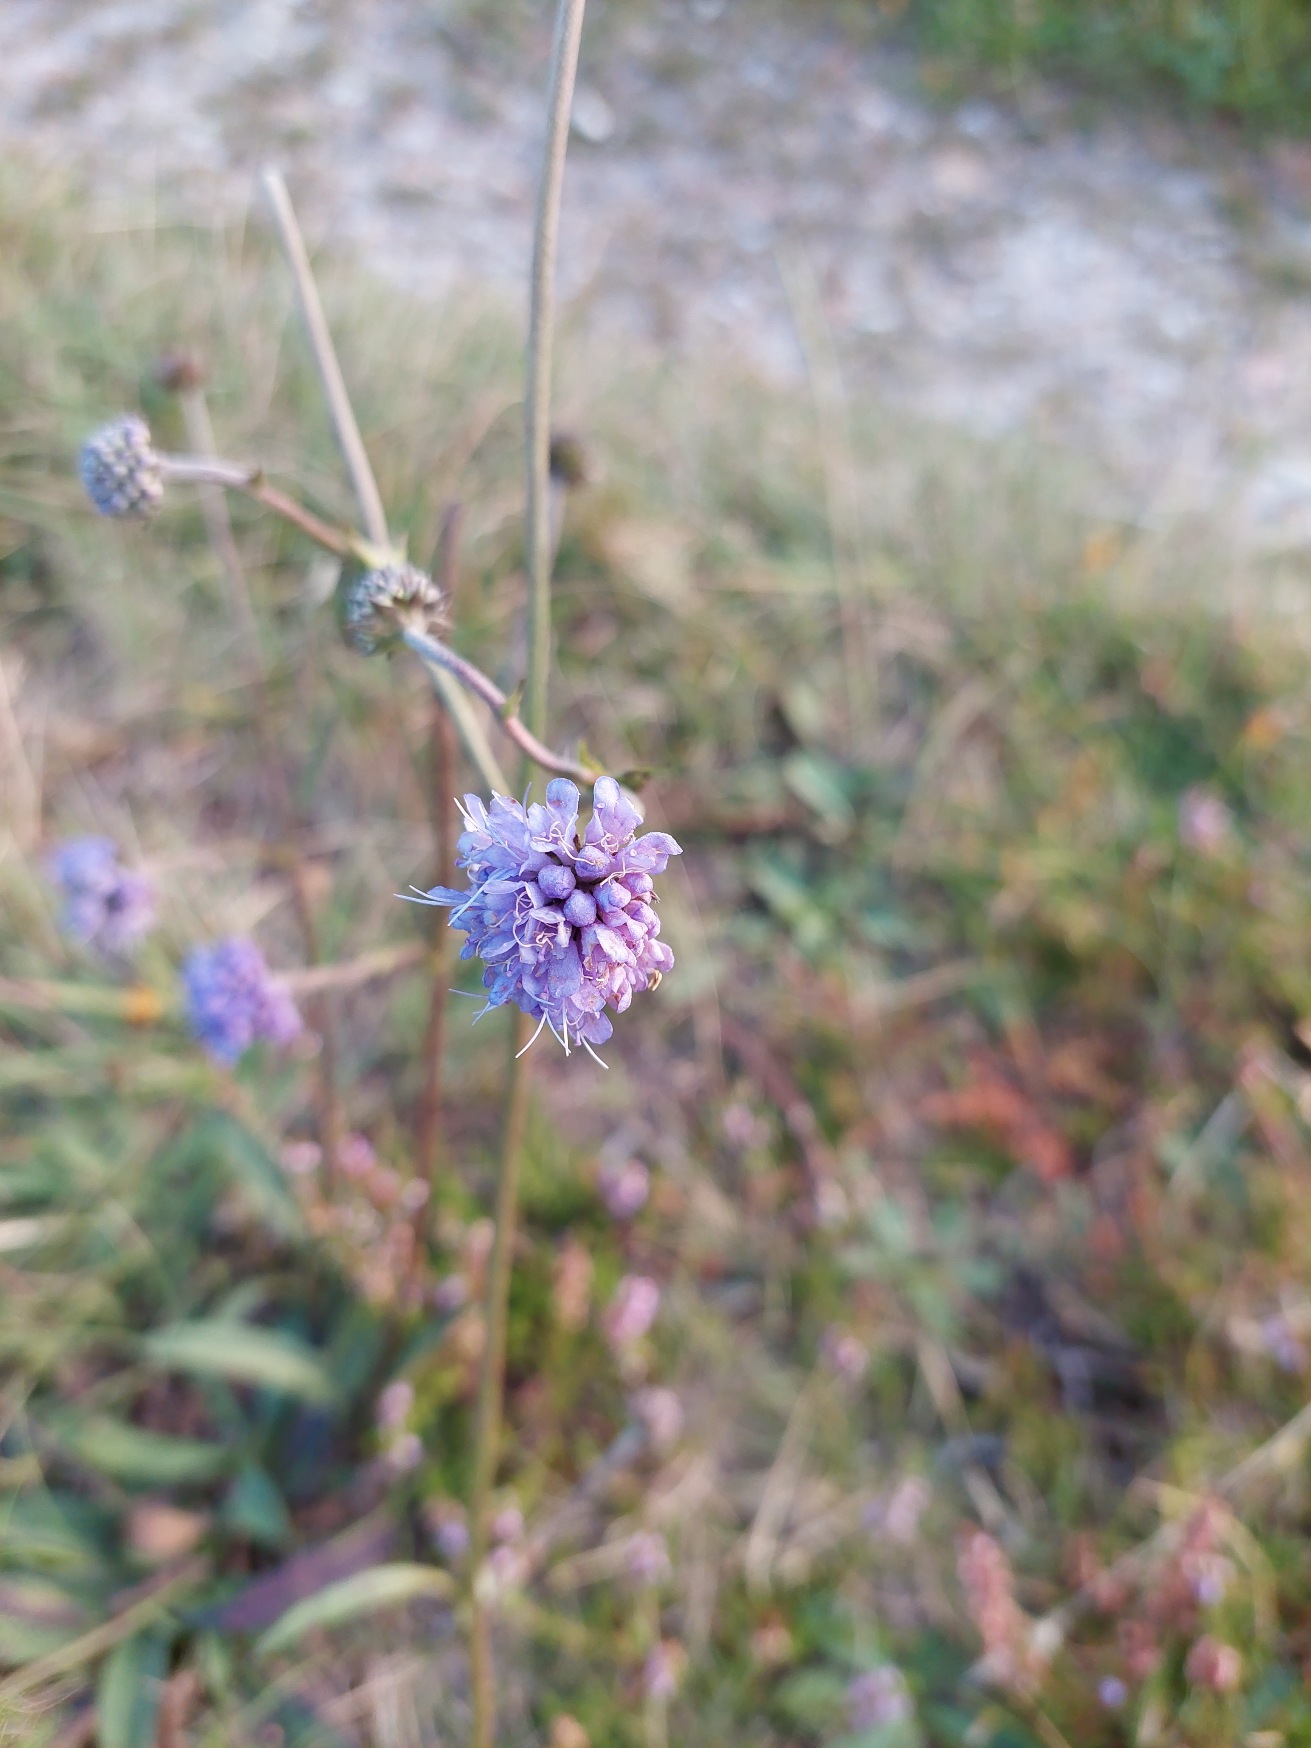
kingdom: Plantae
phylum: Tracheophyta
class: Magnoliopsida
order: Dipsacales
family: Caprifoliaceae
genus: Succisa
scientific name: Succisa pratensis
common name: Djævelsbid
